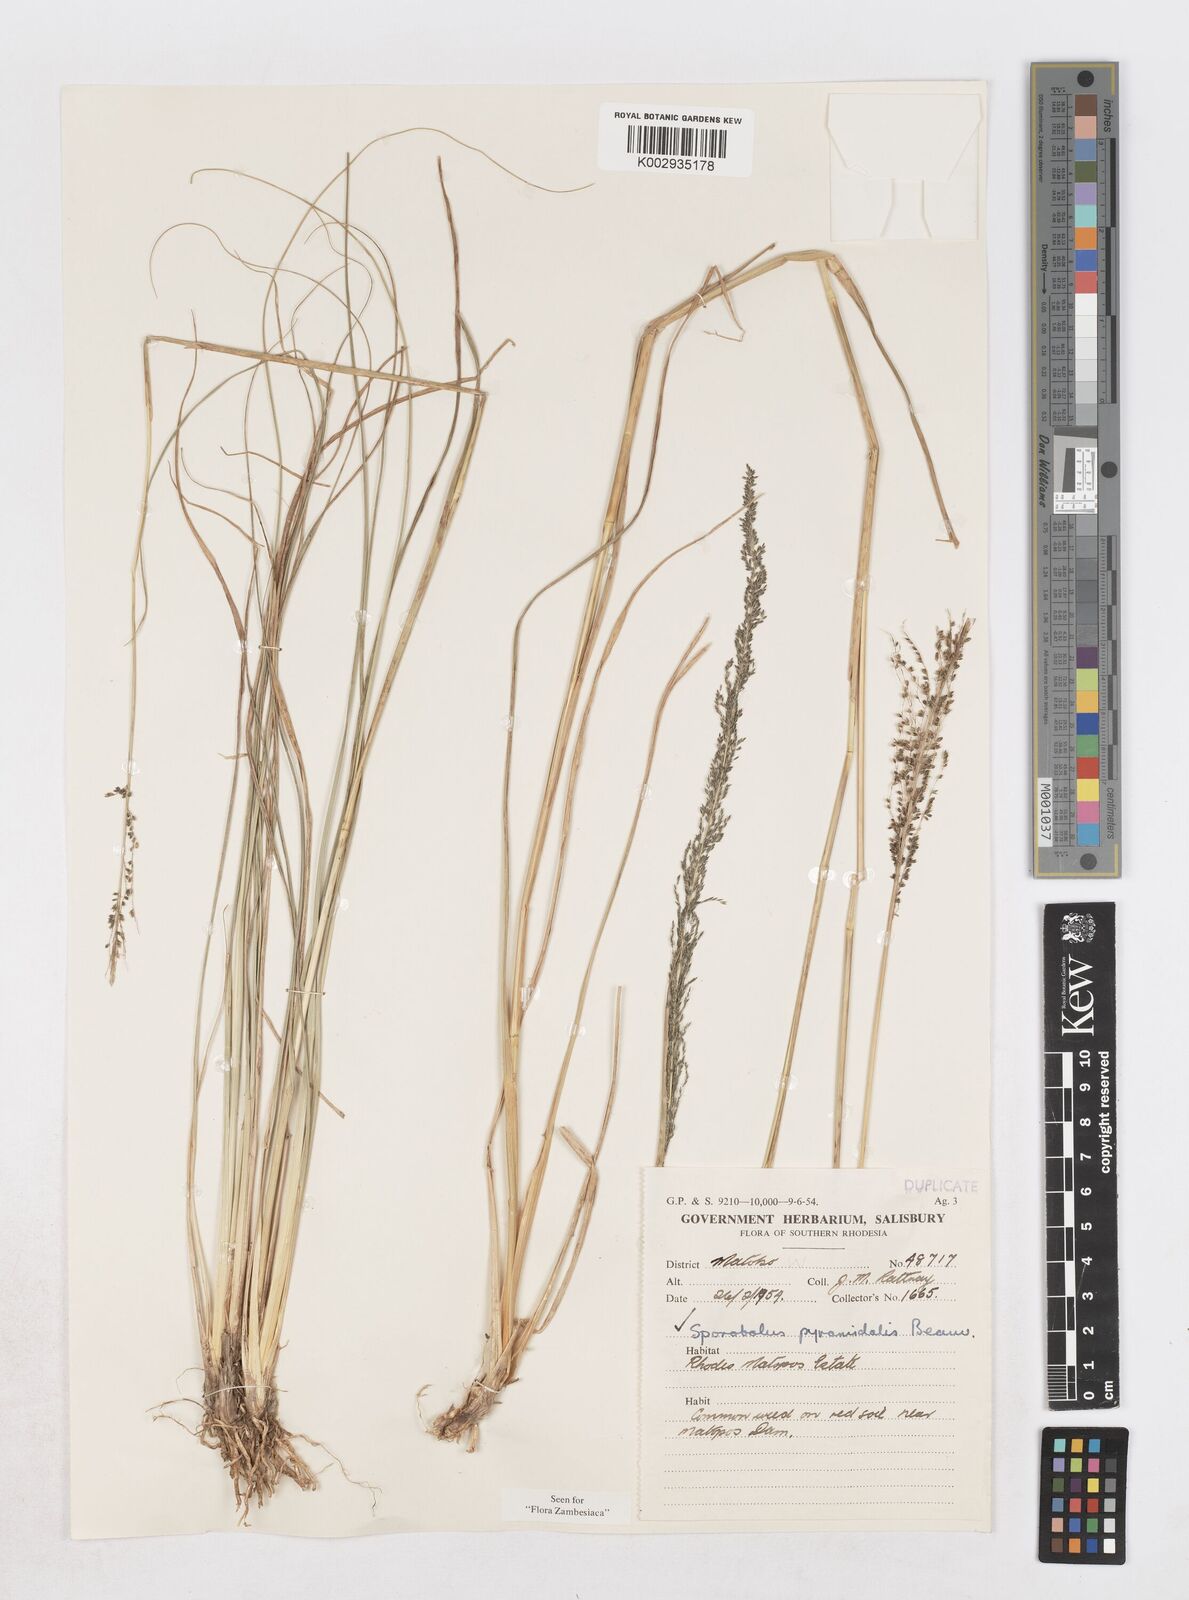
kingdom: Plantae
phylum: Tracheophyta
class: Liliopsida
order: Poales
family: Poaceae
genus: Sporobolus
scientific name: Sporobolus pyramidalis
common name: West indian dropseed
